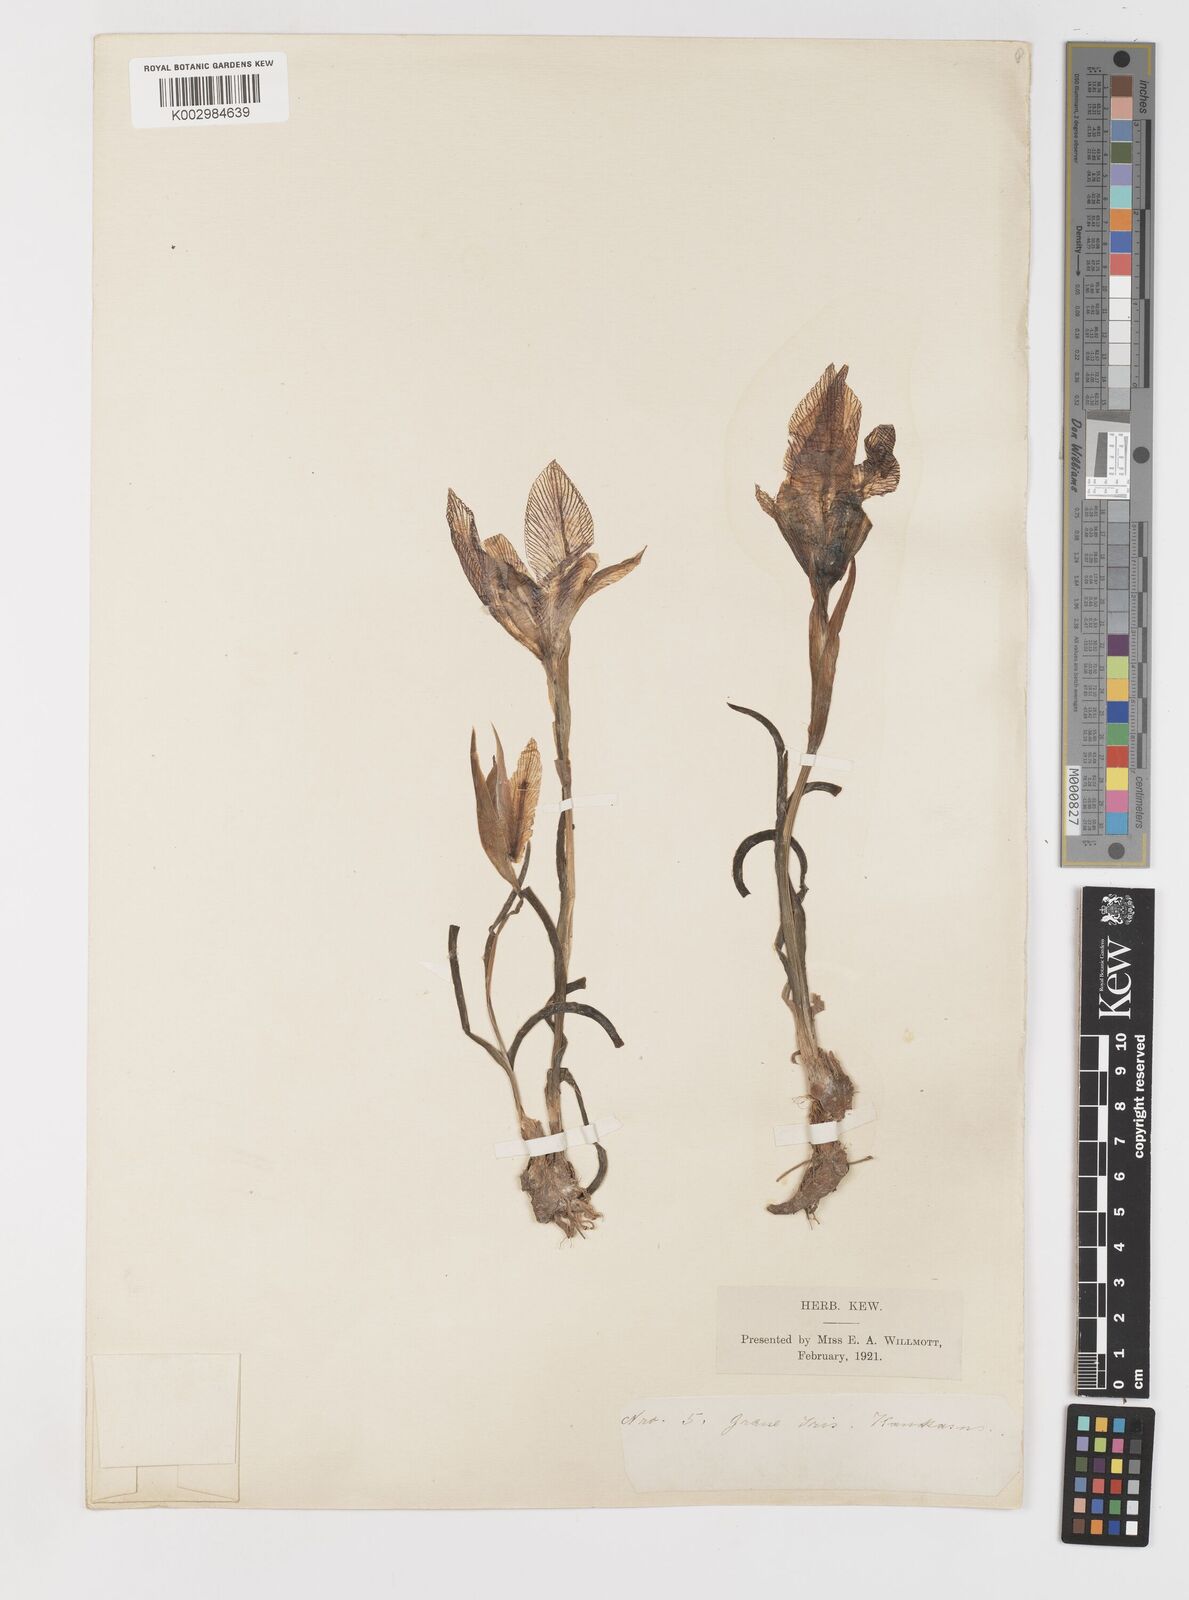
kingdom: Plantae
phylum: Tracheophyta
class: Liliopsida
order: Asparagales
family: Iridaceae
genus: Iris
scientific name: Iris acutiloba
